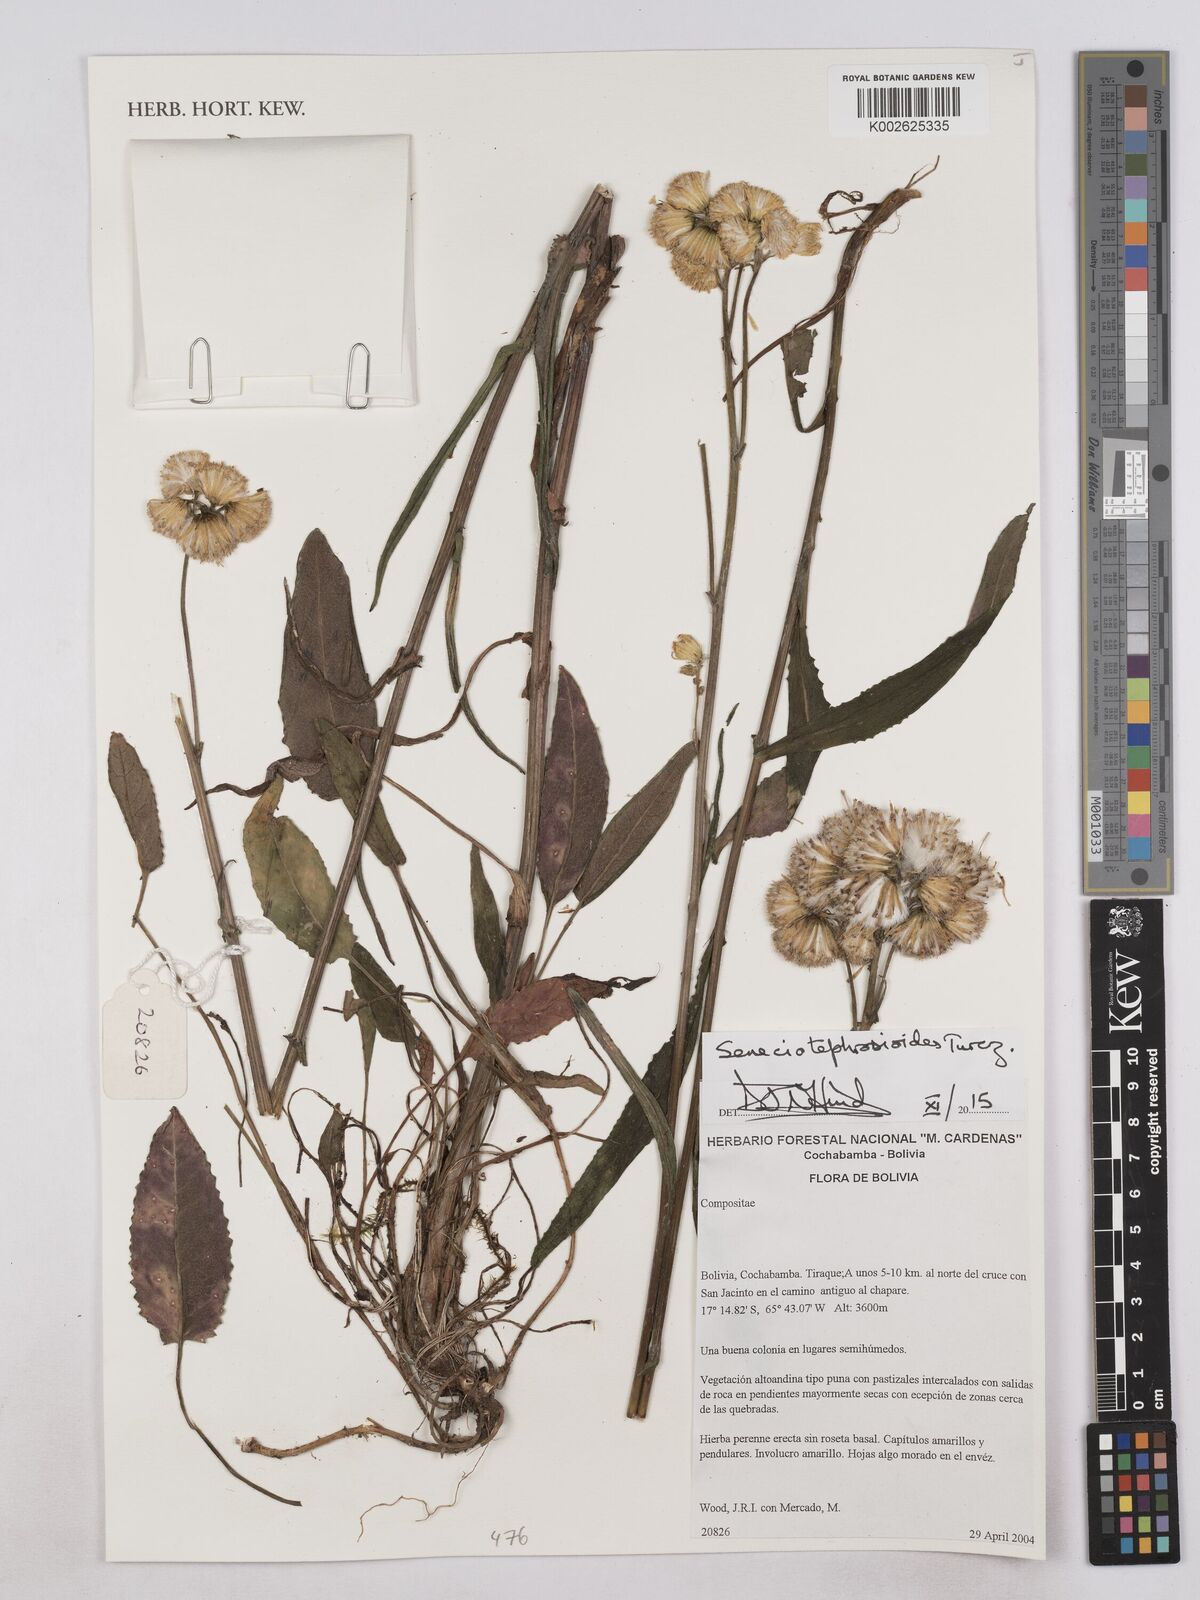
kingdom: Plantae
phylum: Tracheophyta
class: Magnoliopsida
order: Asterales
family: Asteraceae
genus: Senecio
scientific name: Senecio tephrosioides
